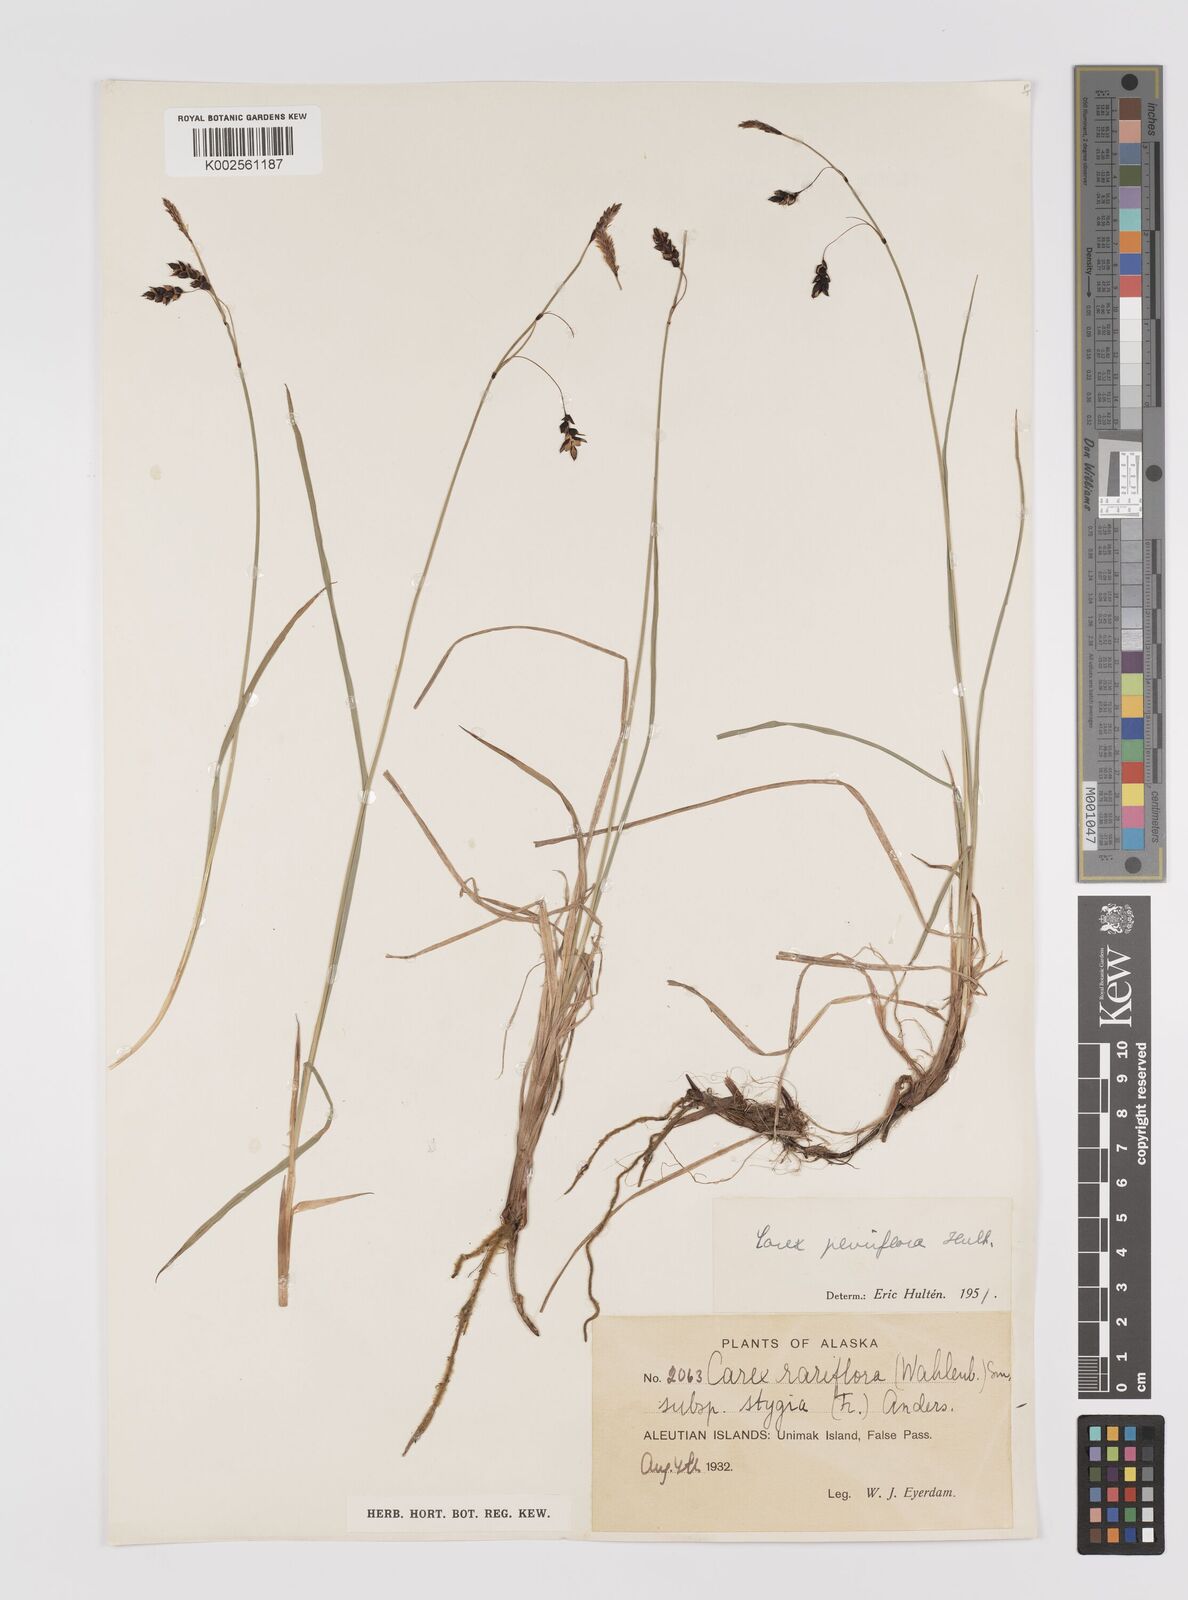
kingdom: Plantae
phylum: Tracheophyta
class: Liliopsida
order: Poales
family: Cyperaceae
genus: Carex
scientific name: Carex pluriflora
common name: Manyflower sedge
